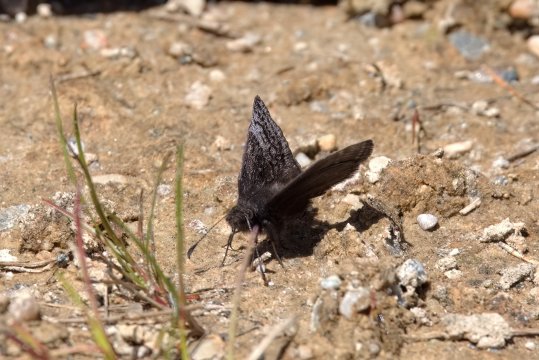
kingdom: Animalia
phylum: Arthropoda
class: Insecta
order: Lepidoptera
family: Hesperiidae
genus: Erynnis
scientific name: Erynnis icelus
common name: Dreamy Duskywing
